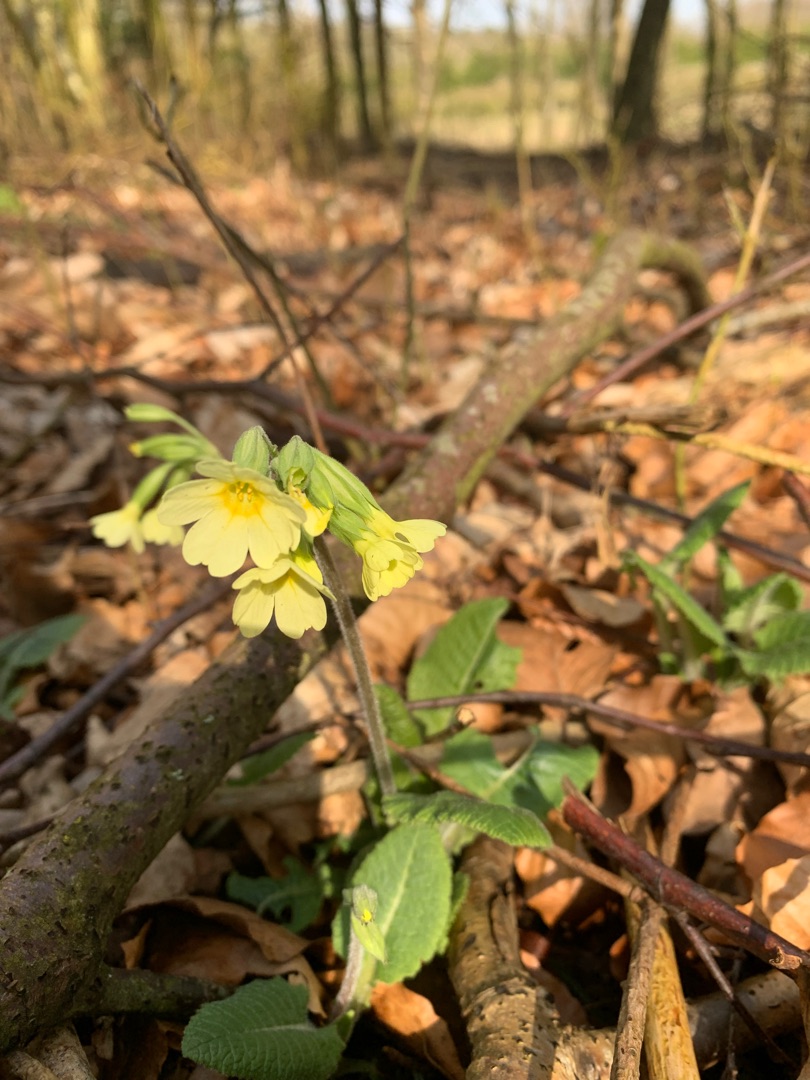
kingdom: Plantae
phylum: Tracheophyta
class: Magnoliopsida
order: Ericales
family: Primulaceae
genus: Primula
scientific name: Primula elatior
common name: Fladkravet kodriver
